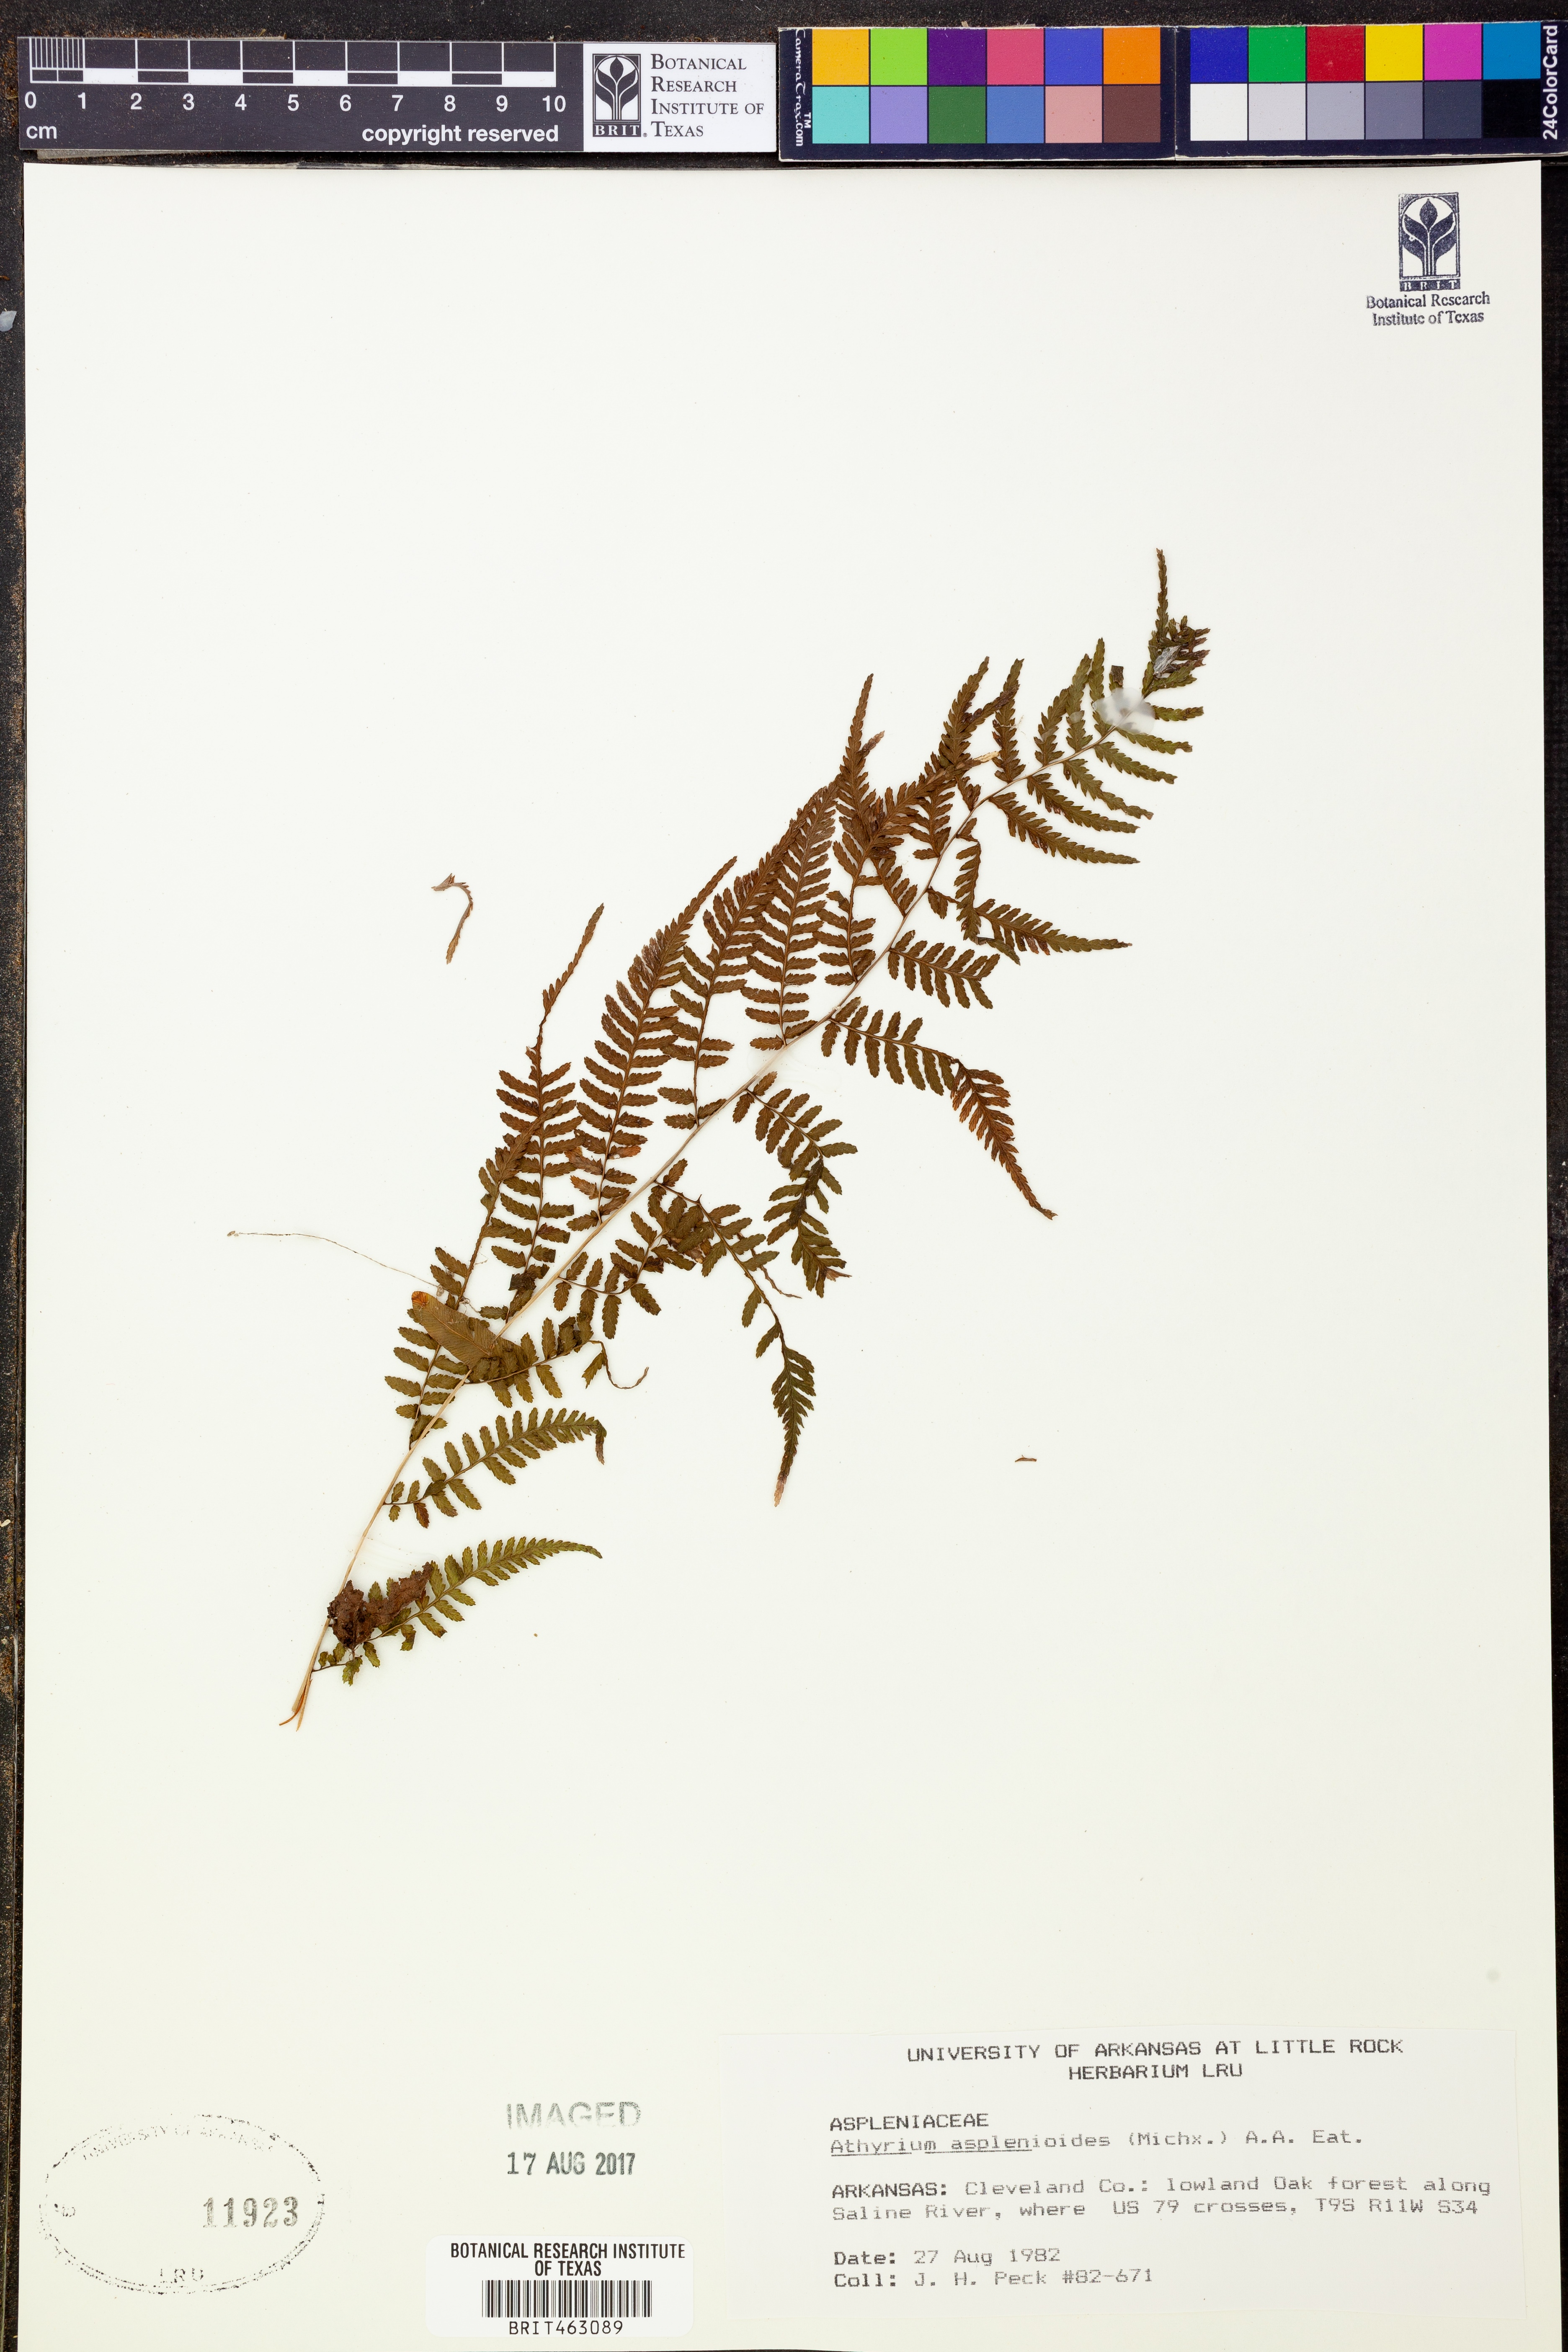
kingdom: Plantae
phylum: Tracheophyta
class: Polypodiopsida
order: Polypodiales
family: Athyriaceae
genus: Athyrium
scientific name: Athyrium asplenioides
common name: Southern lady fern
